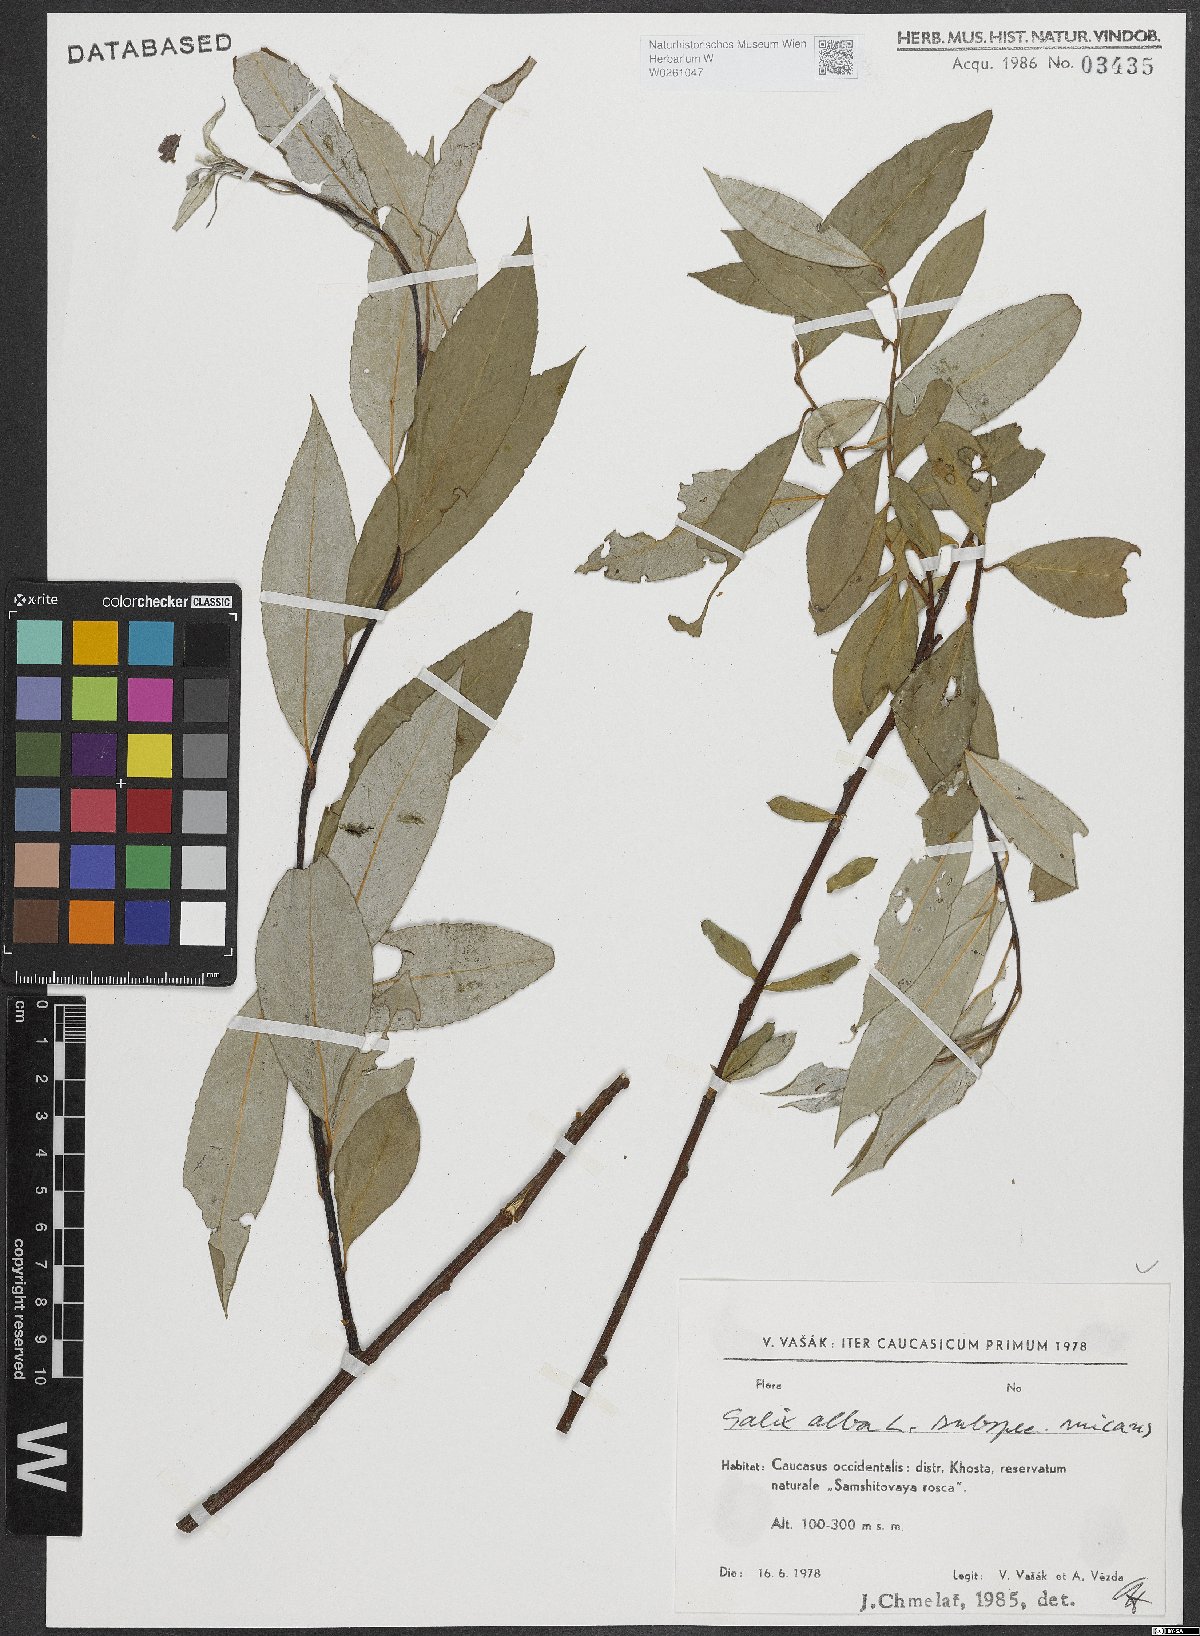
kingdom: Plantae
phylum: Tracheophyta
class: Magnoliopsida
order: Malpighiales
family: Salicaceae
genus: Salix
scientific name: Salix alba
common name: White willow
